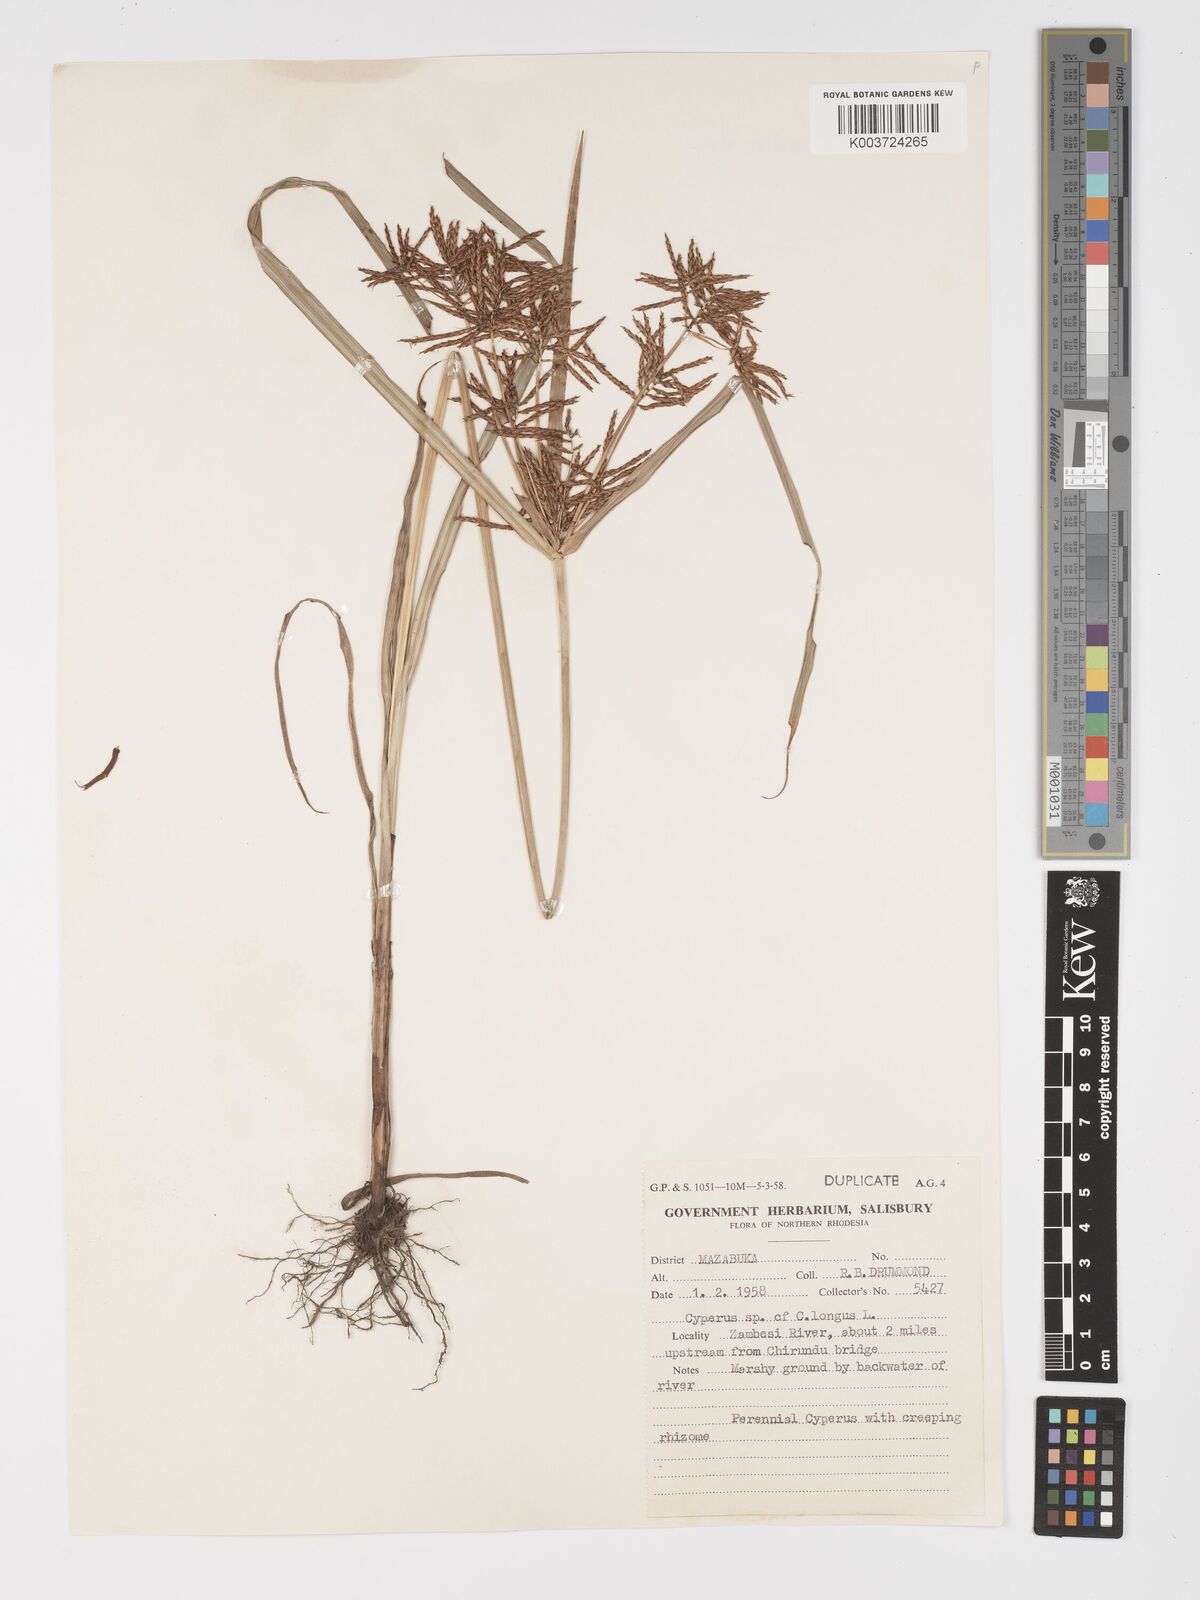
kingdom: Plantae
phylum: Tracheophyta
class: Liliopsida
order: Poales
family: Cyperaceae
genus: Cyperus
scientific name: Cyperus
